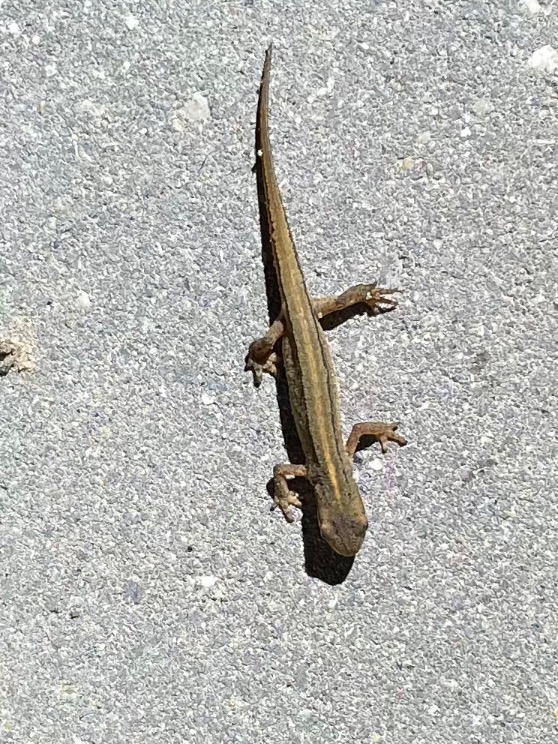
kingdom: Animalia
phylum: Chordata
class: Amphibia
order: Caudata
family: Salamandridae
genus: Lissotriton
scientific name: Lissotriton vulgaris
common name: Lille vandsalamander
